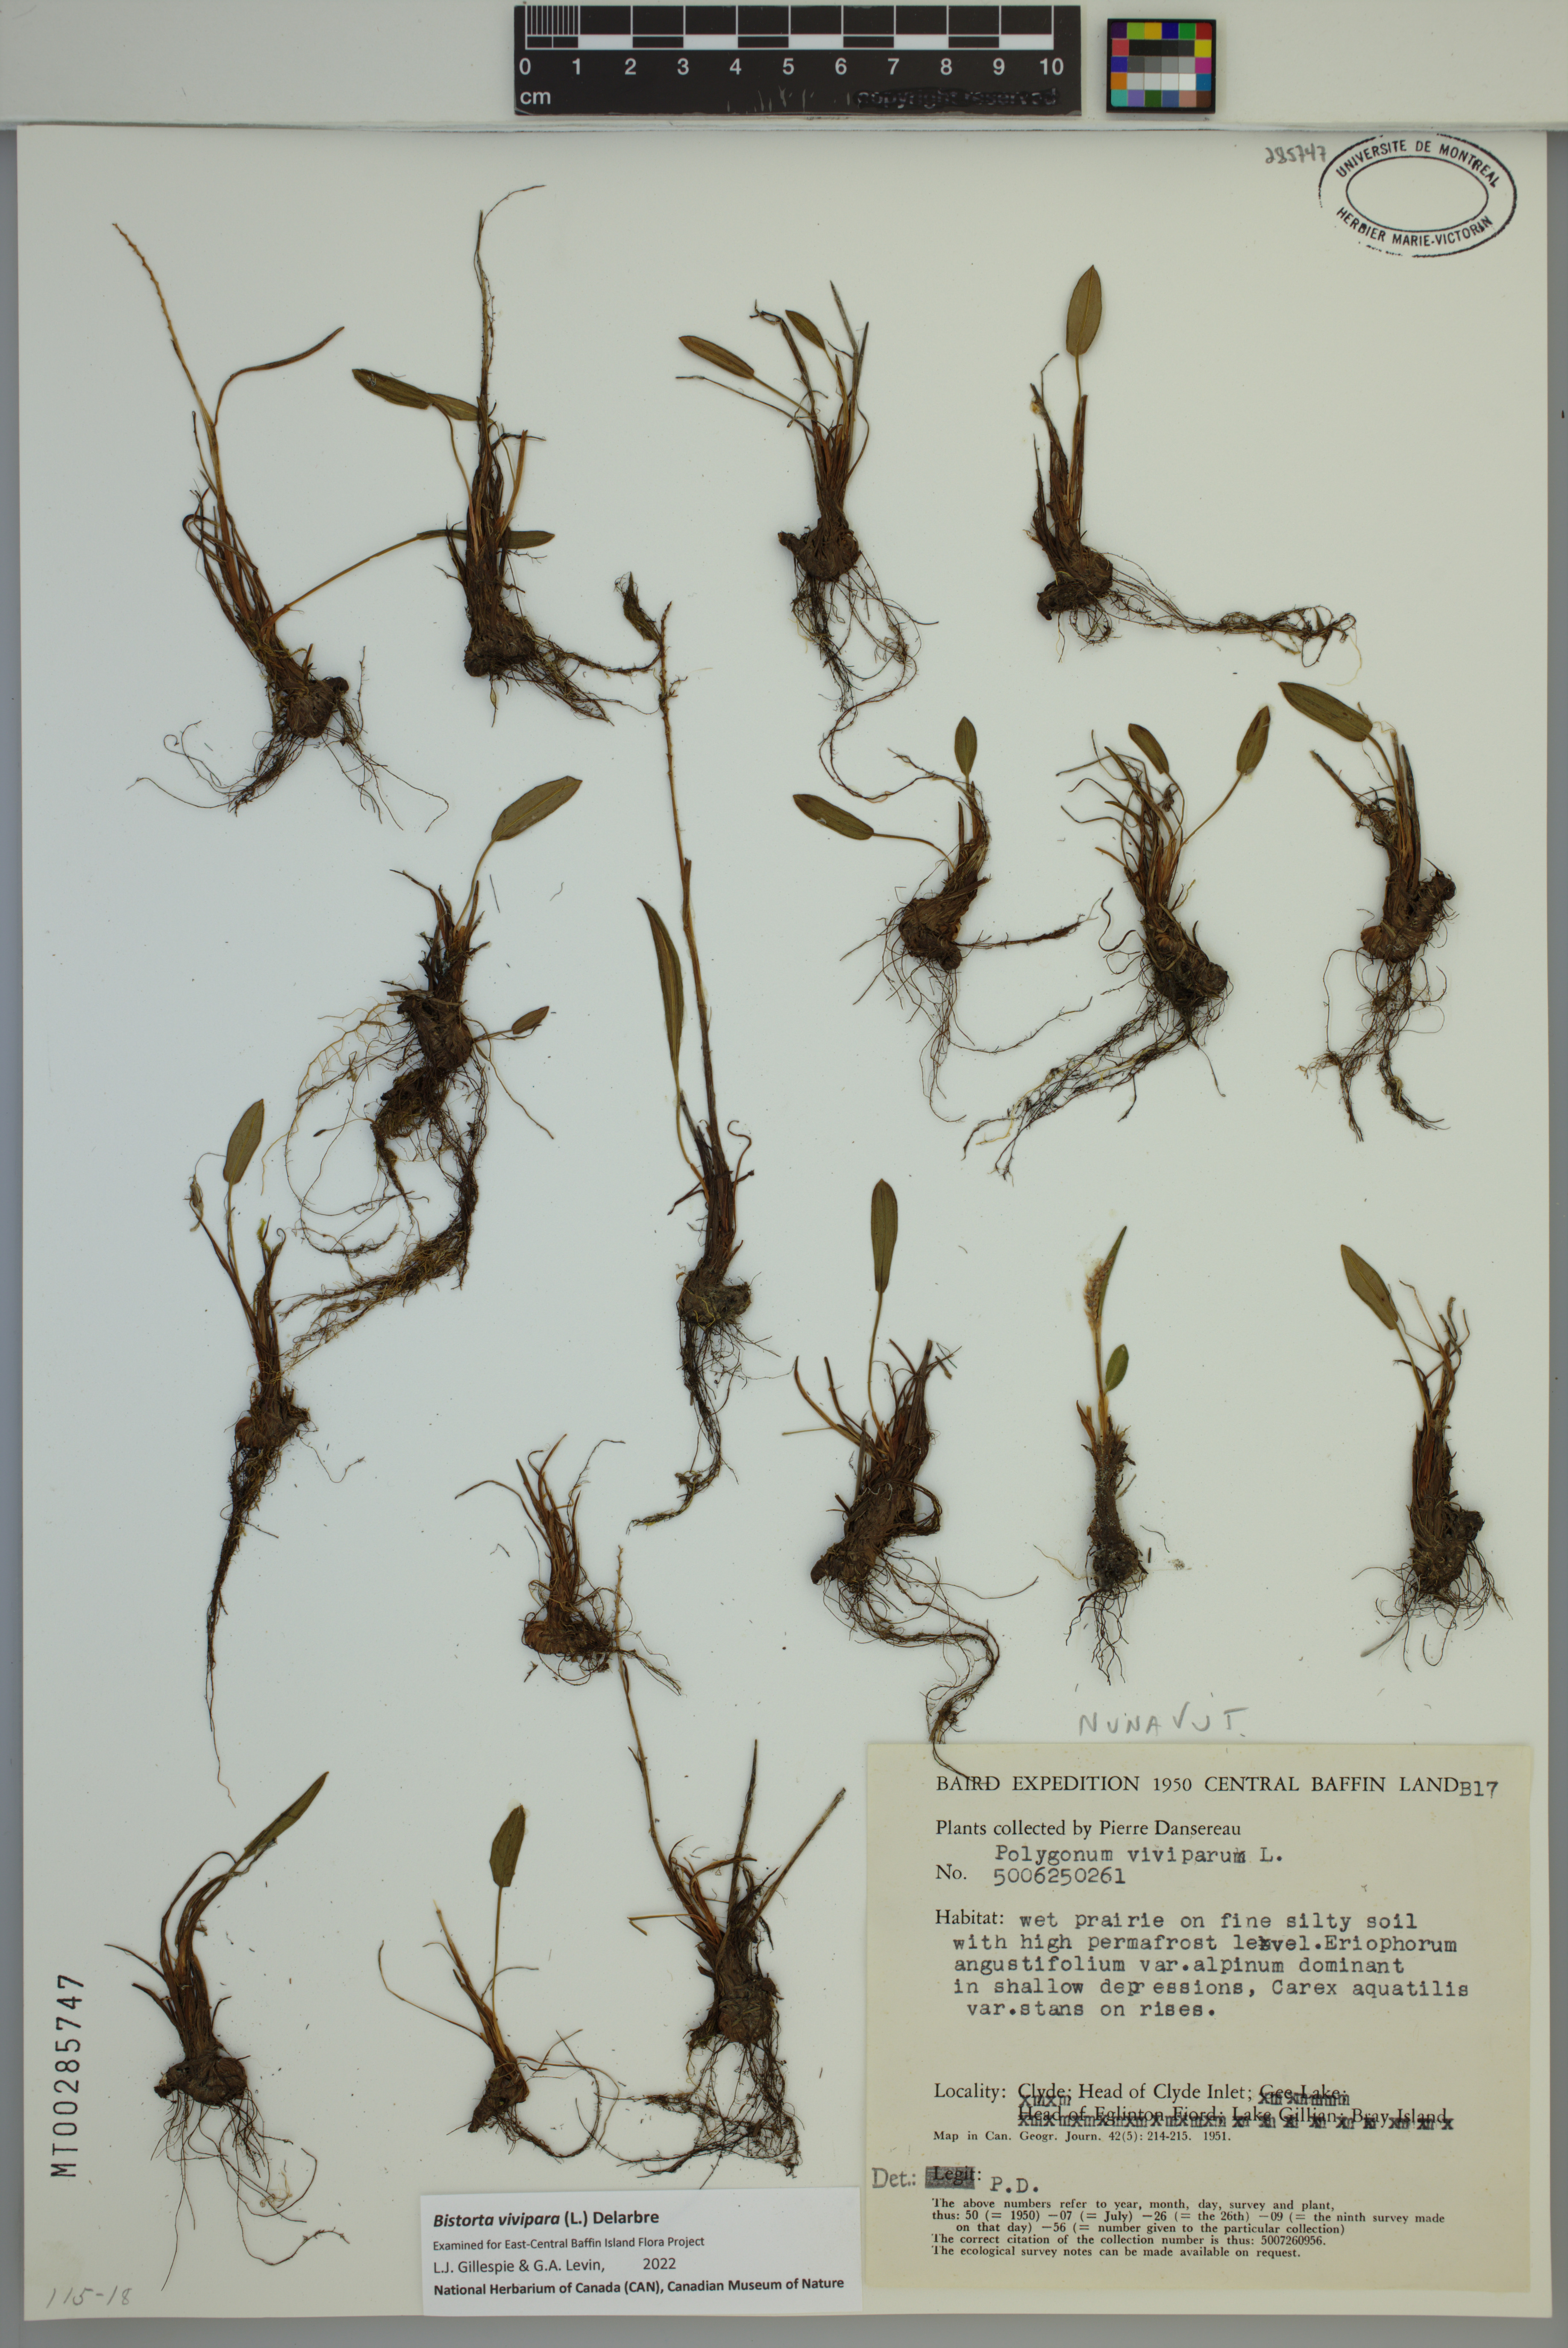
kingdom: Plantae
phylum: Tracheophyta
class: Magnoliopsida
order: Caryophyllales
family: Polygonaceae
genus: Bistorta
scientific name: Bistorta vivipara
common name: Alpine bistort
